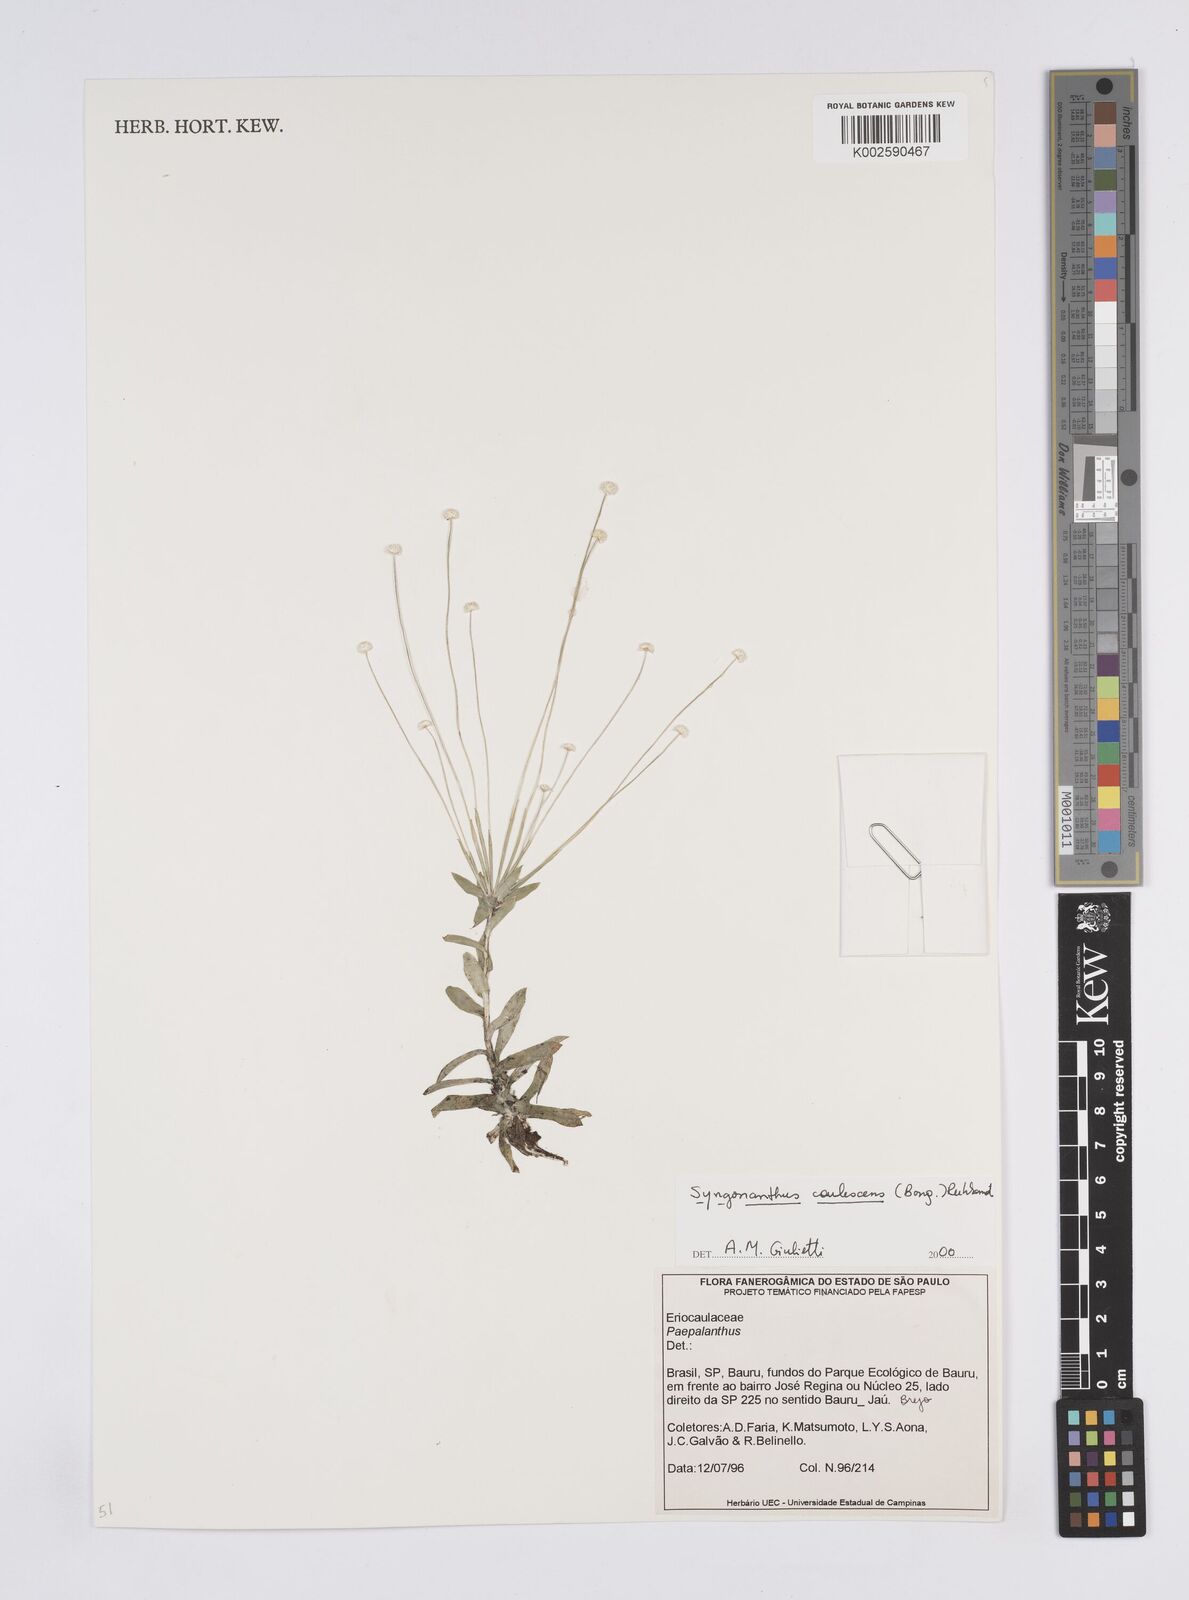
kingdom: Plantae
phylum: Tracheophyta
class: Liliopsida
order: Poales
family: Eriocaulaceae
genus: Syngonanthus
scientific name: Syngonanthus caulescens
